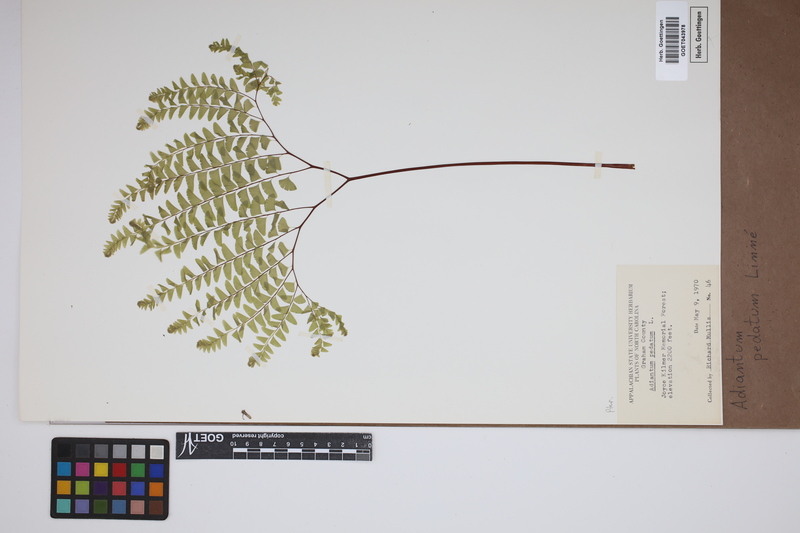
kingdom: Plantae
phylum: Tracheophyta
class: Polypodiopsida
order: Polypodiales
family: Pteridaceae
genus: Adiantum
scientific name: Adiantum pedatum
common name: Five-finger fern
